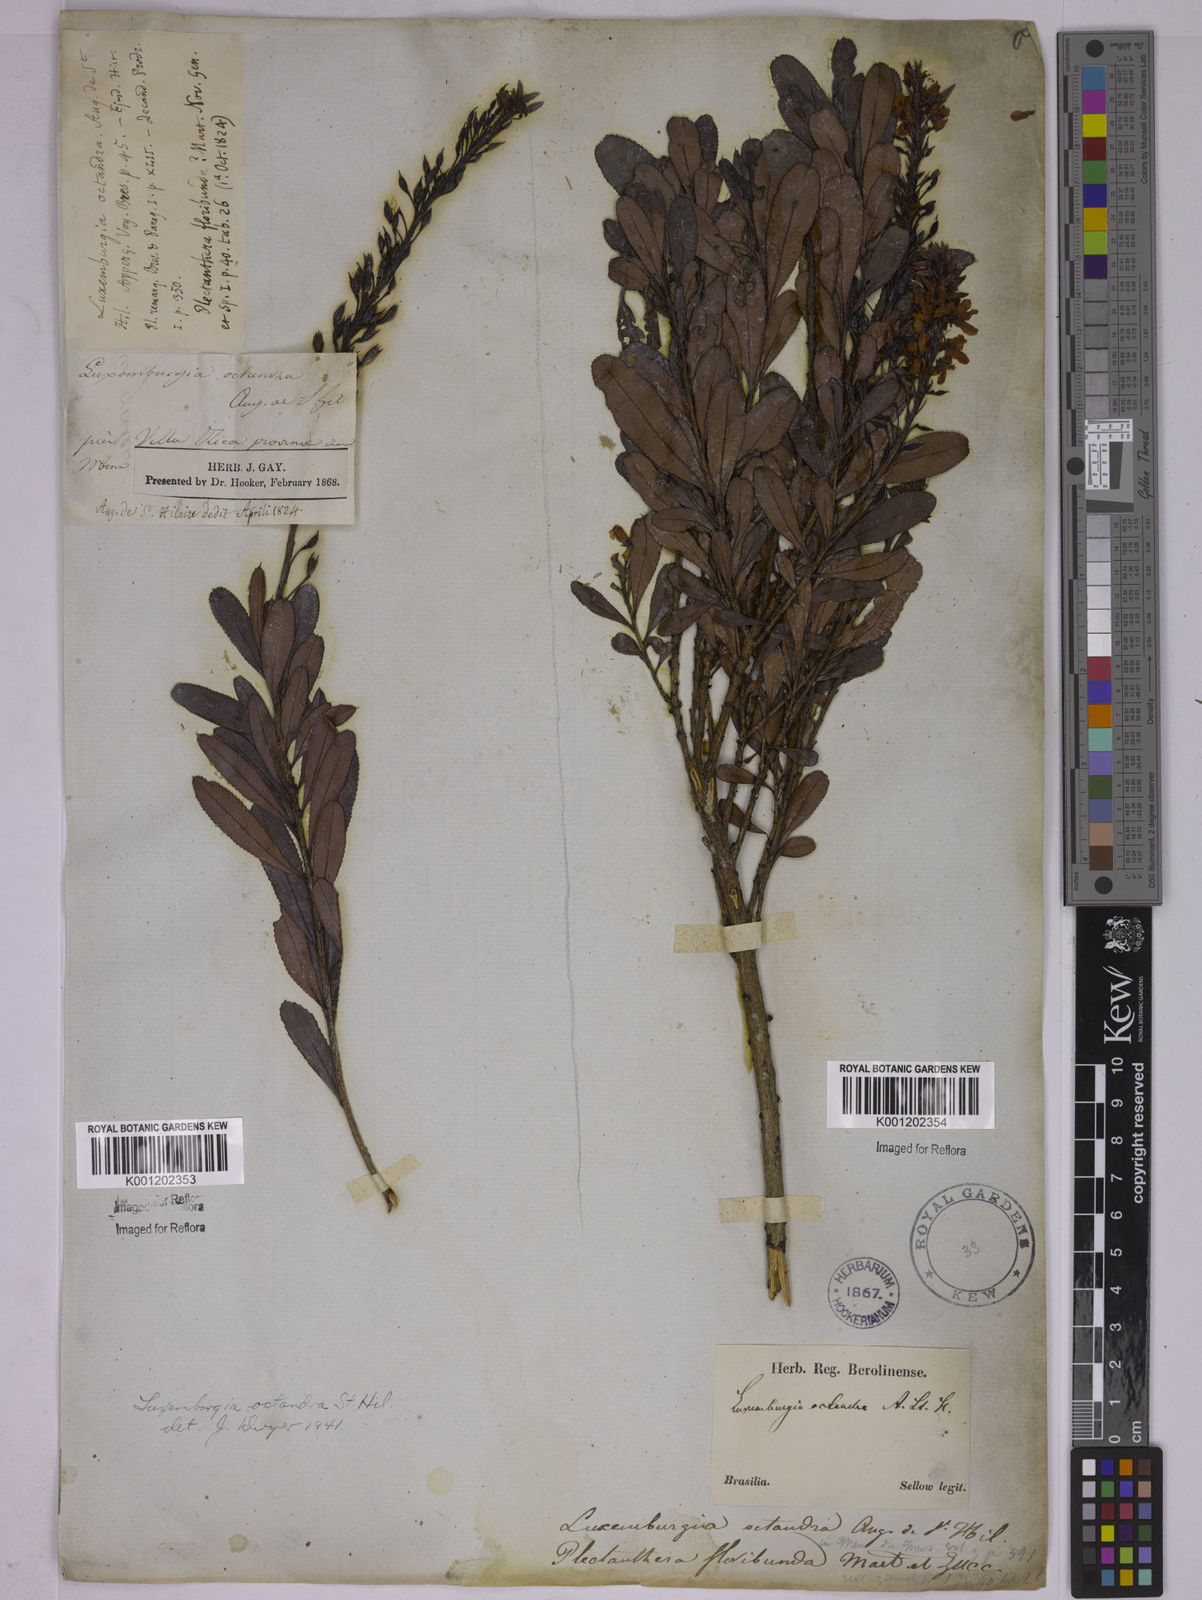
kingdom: Plantae
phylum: Tracheophyta
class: Magnoliopsida
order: Malpighiales
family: Ochnaceae
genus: Luxemburgia
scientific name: Luxemburgia octandra
